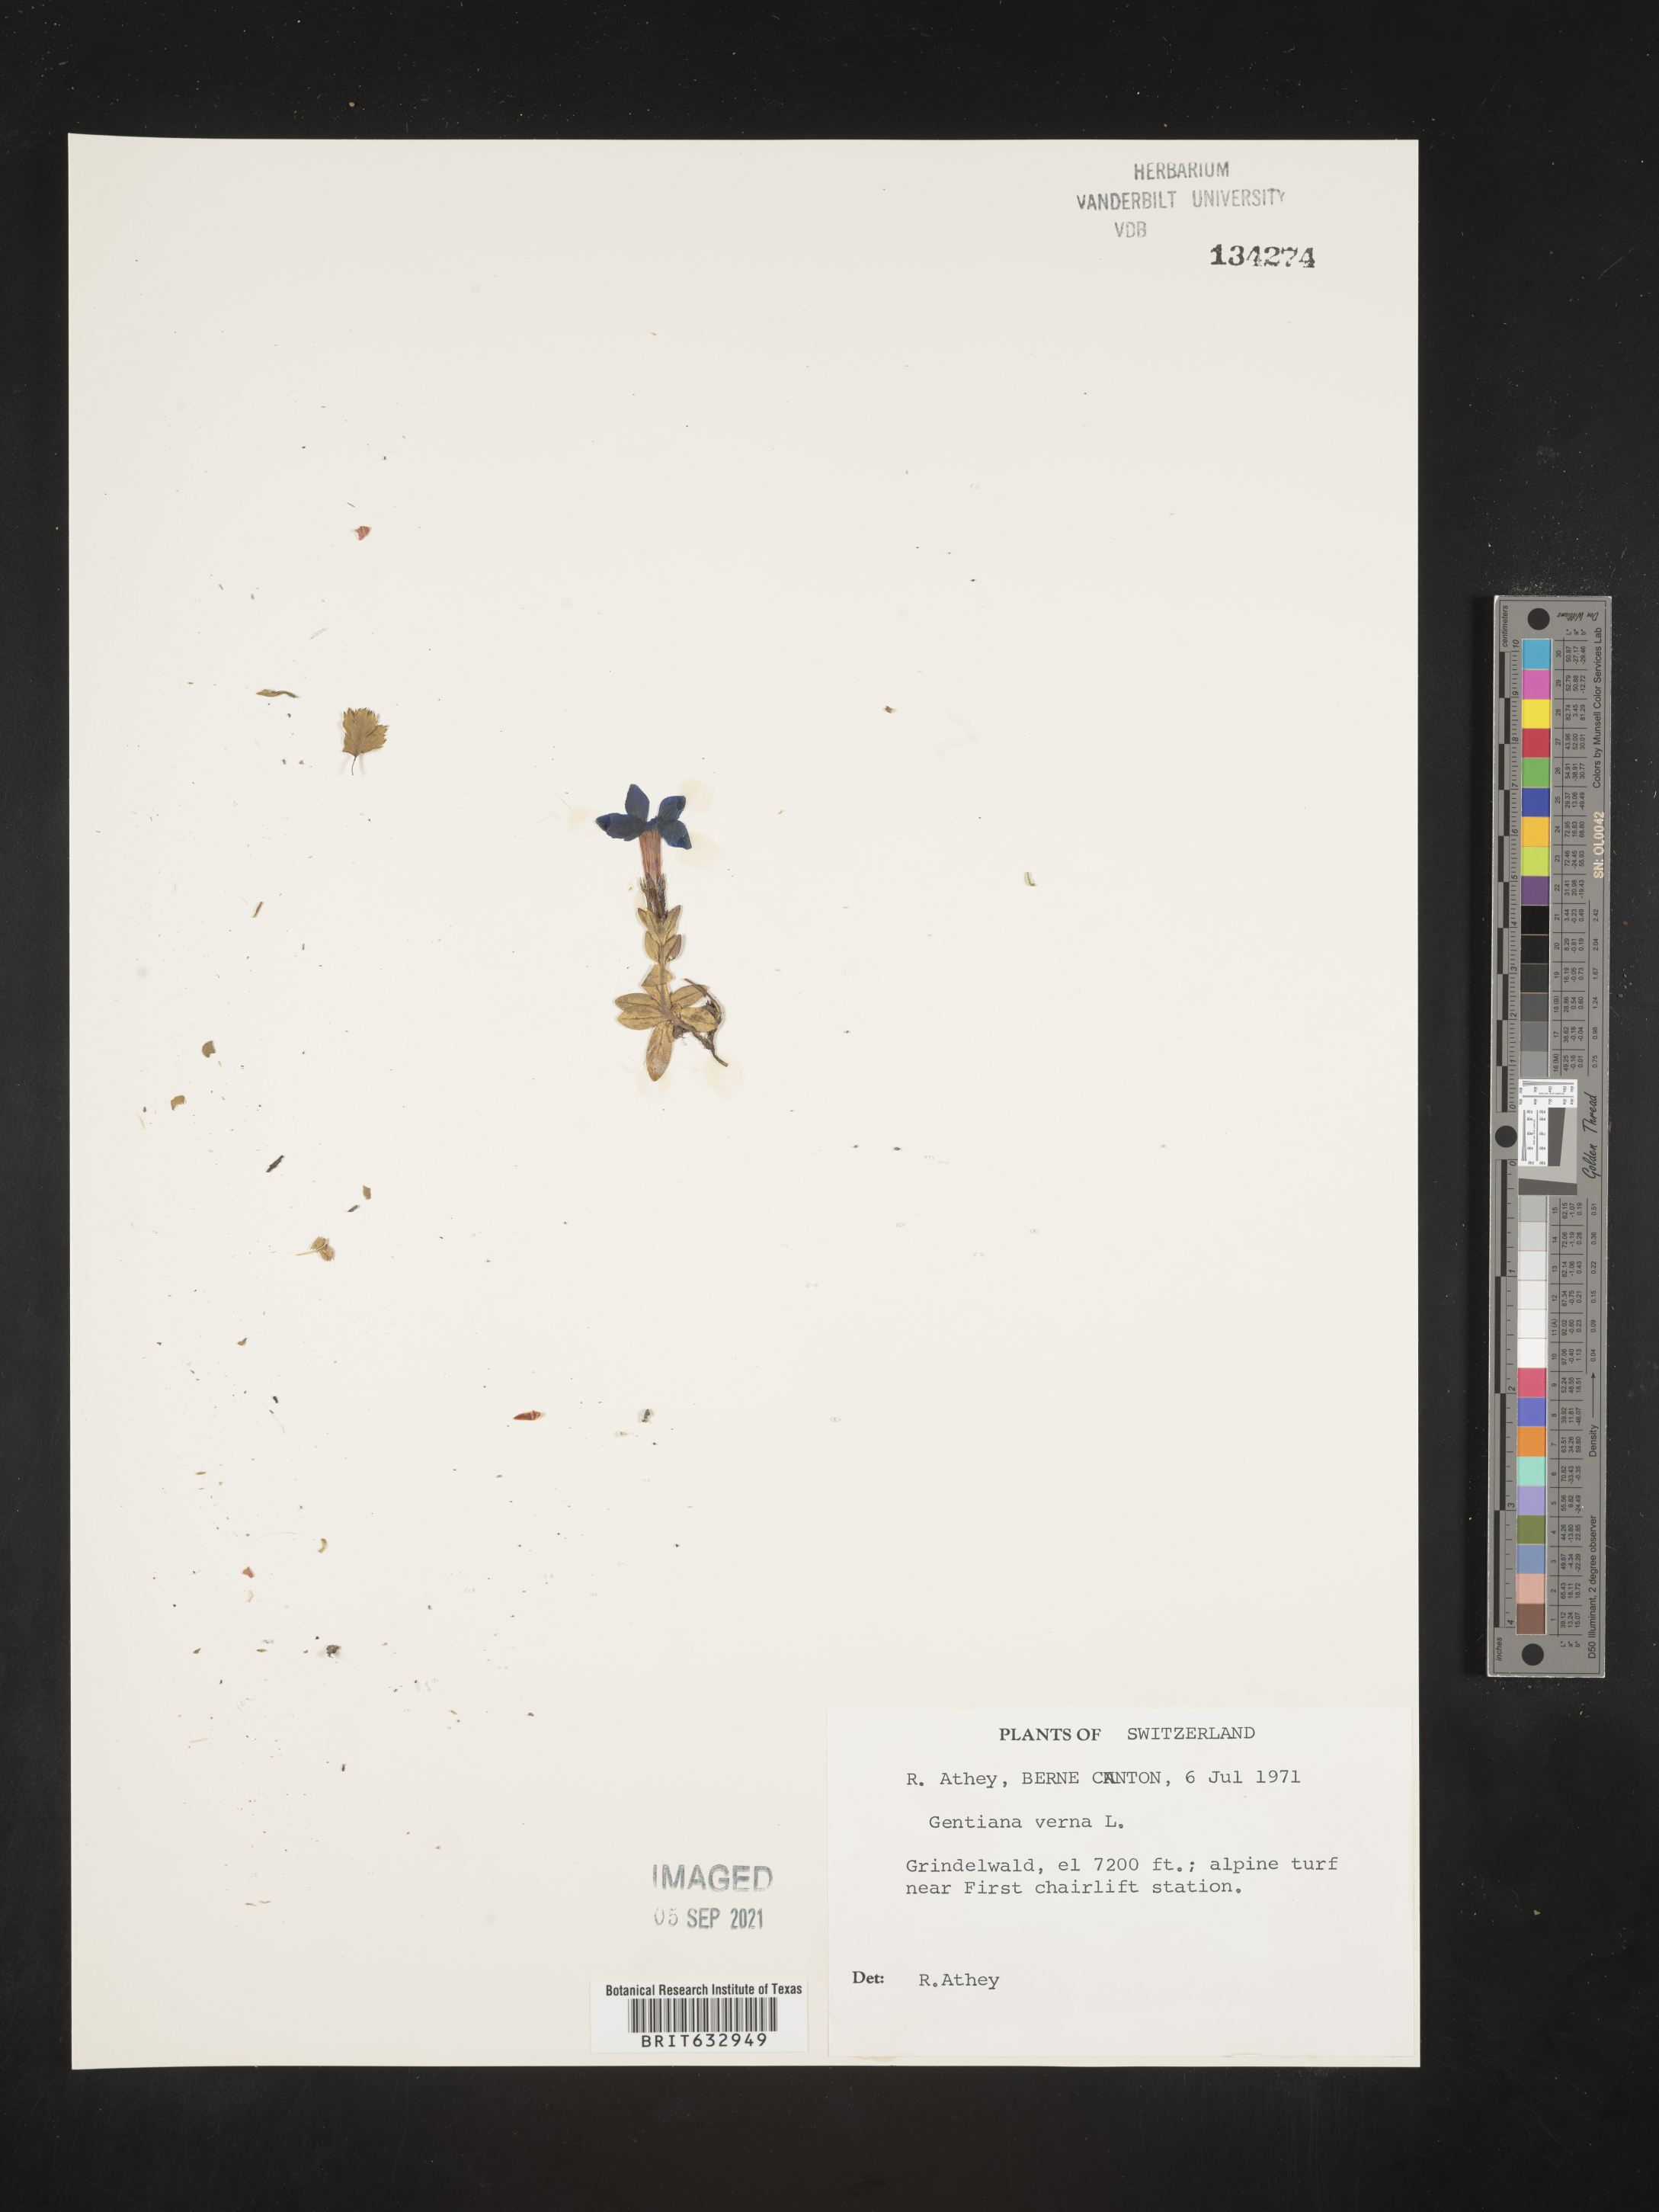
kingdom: Plantae
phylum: Tracheophyta
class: Magnoliopsida
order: Gentianales
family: Gentianaceae
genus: Gentiana
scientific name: Gentiana
